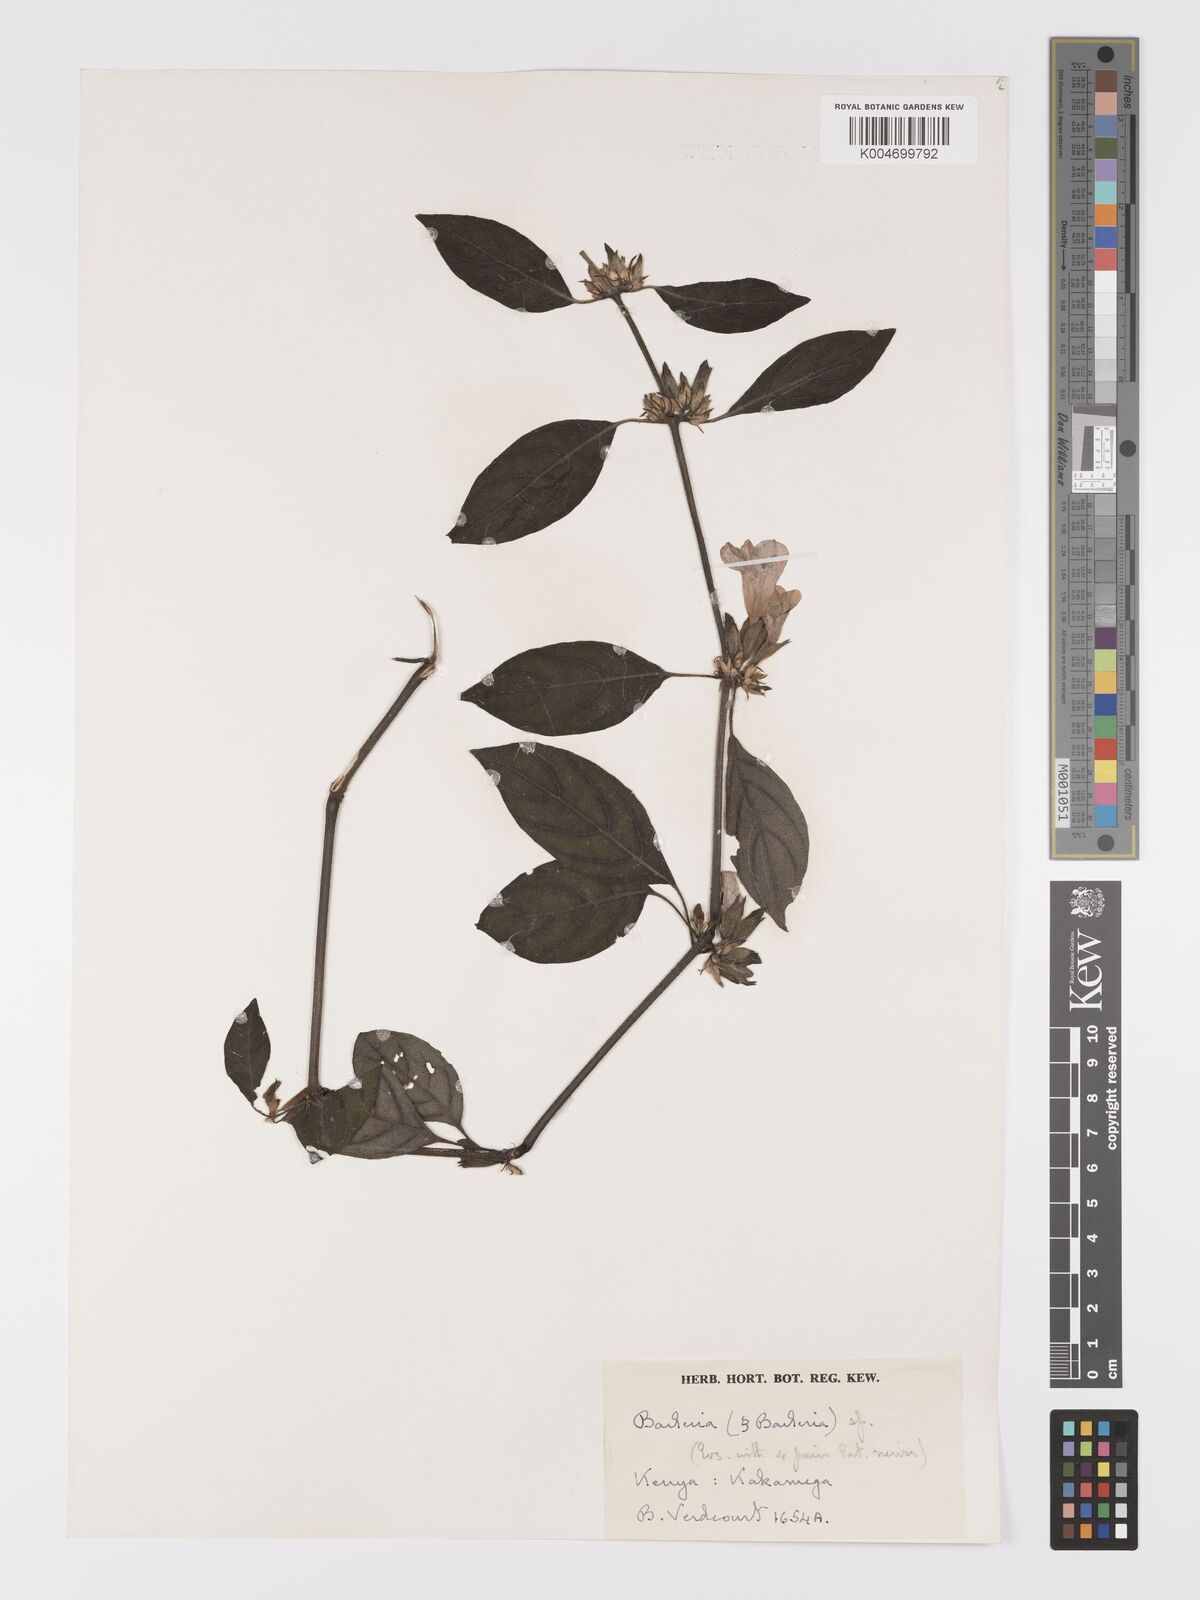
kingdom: Plantae
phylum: Tracheophyta
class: Magnoliopsida
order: Lamiales
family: Acanthaceae
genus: Barleria
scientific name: Barleria ventricosa
